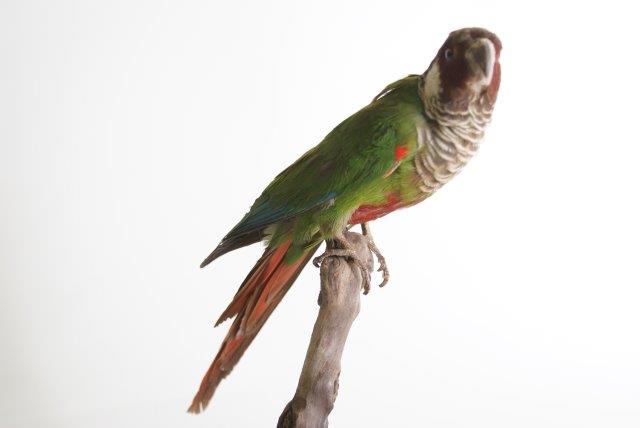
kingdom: Animalia
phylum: Chordata
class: Aves
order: Psittaciformes
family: Psittacidae
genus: Pyrrhura
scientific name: Pyrrhura leucotis
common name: Witoorparkiet
